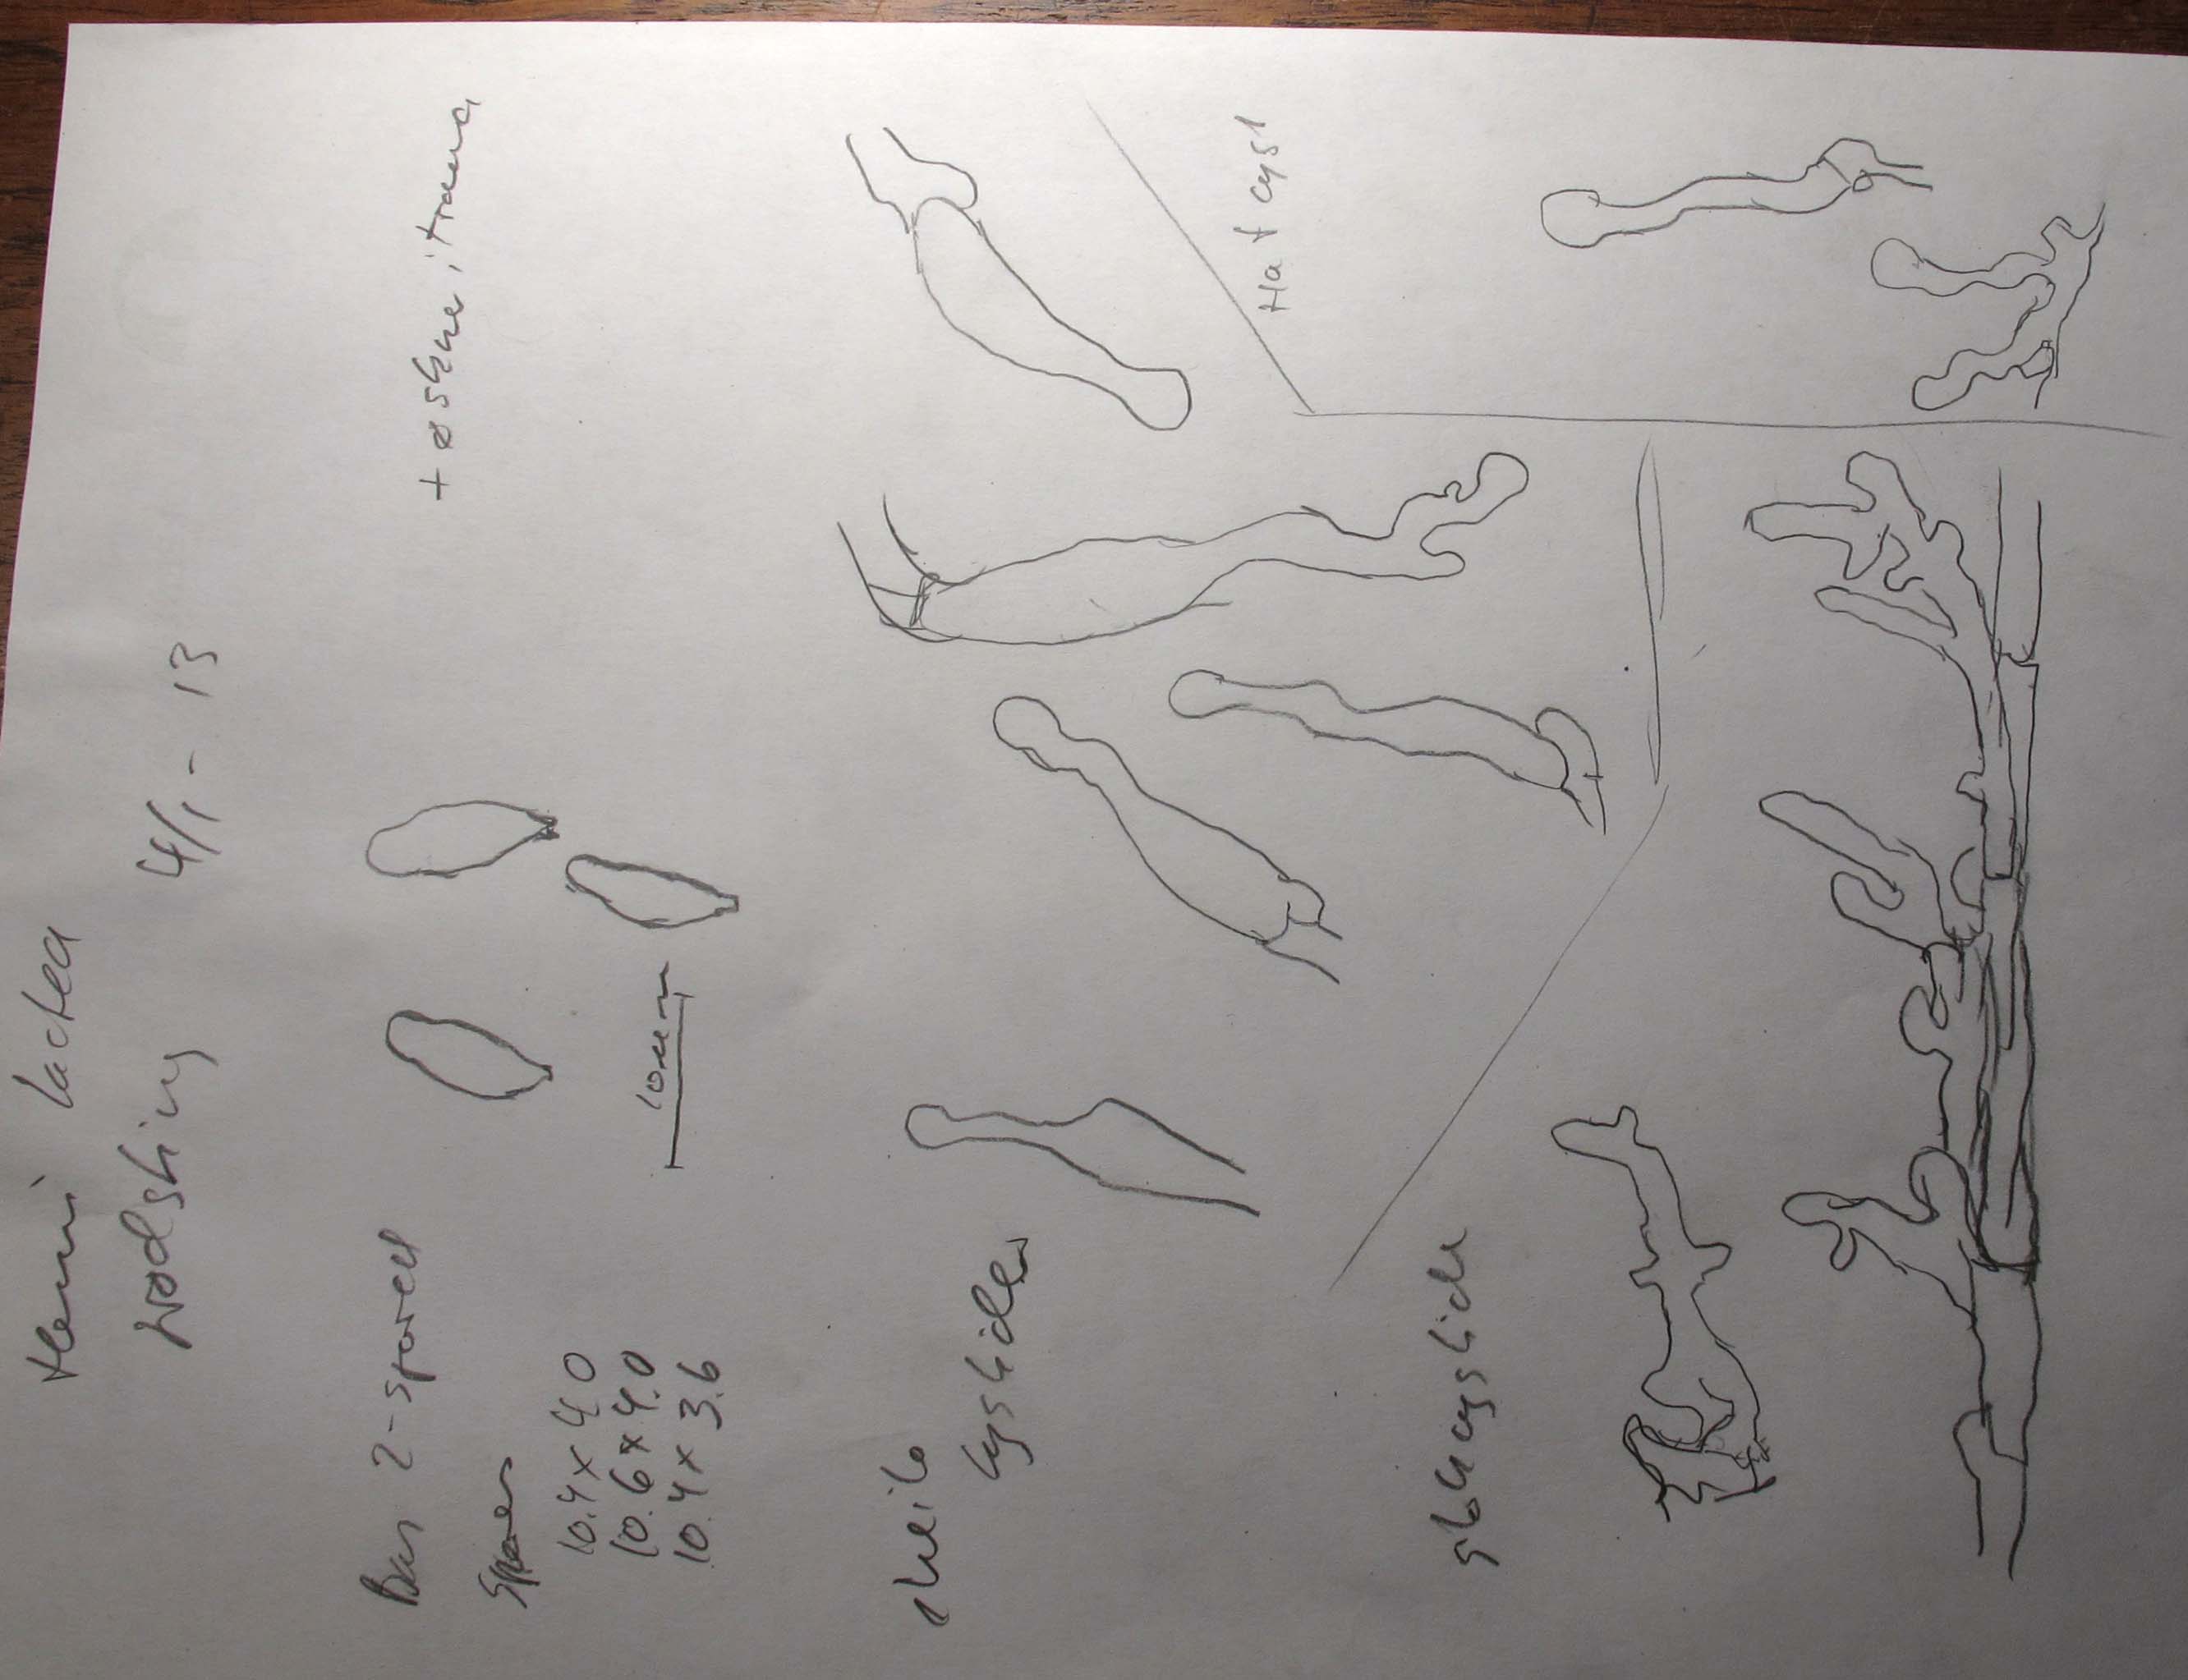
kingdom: Fungi
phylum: Basidiomycota
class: Agaricomycetes
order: Agaricales
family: Mycenaceae
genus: Hemimycena
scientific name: Hemimycena lactea
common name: mælkehvid huesvamp
